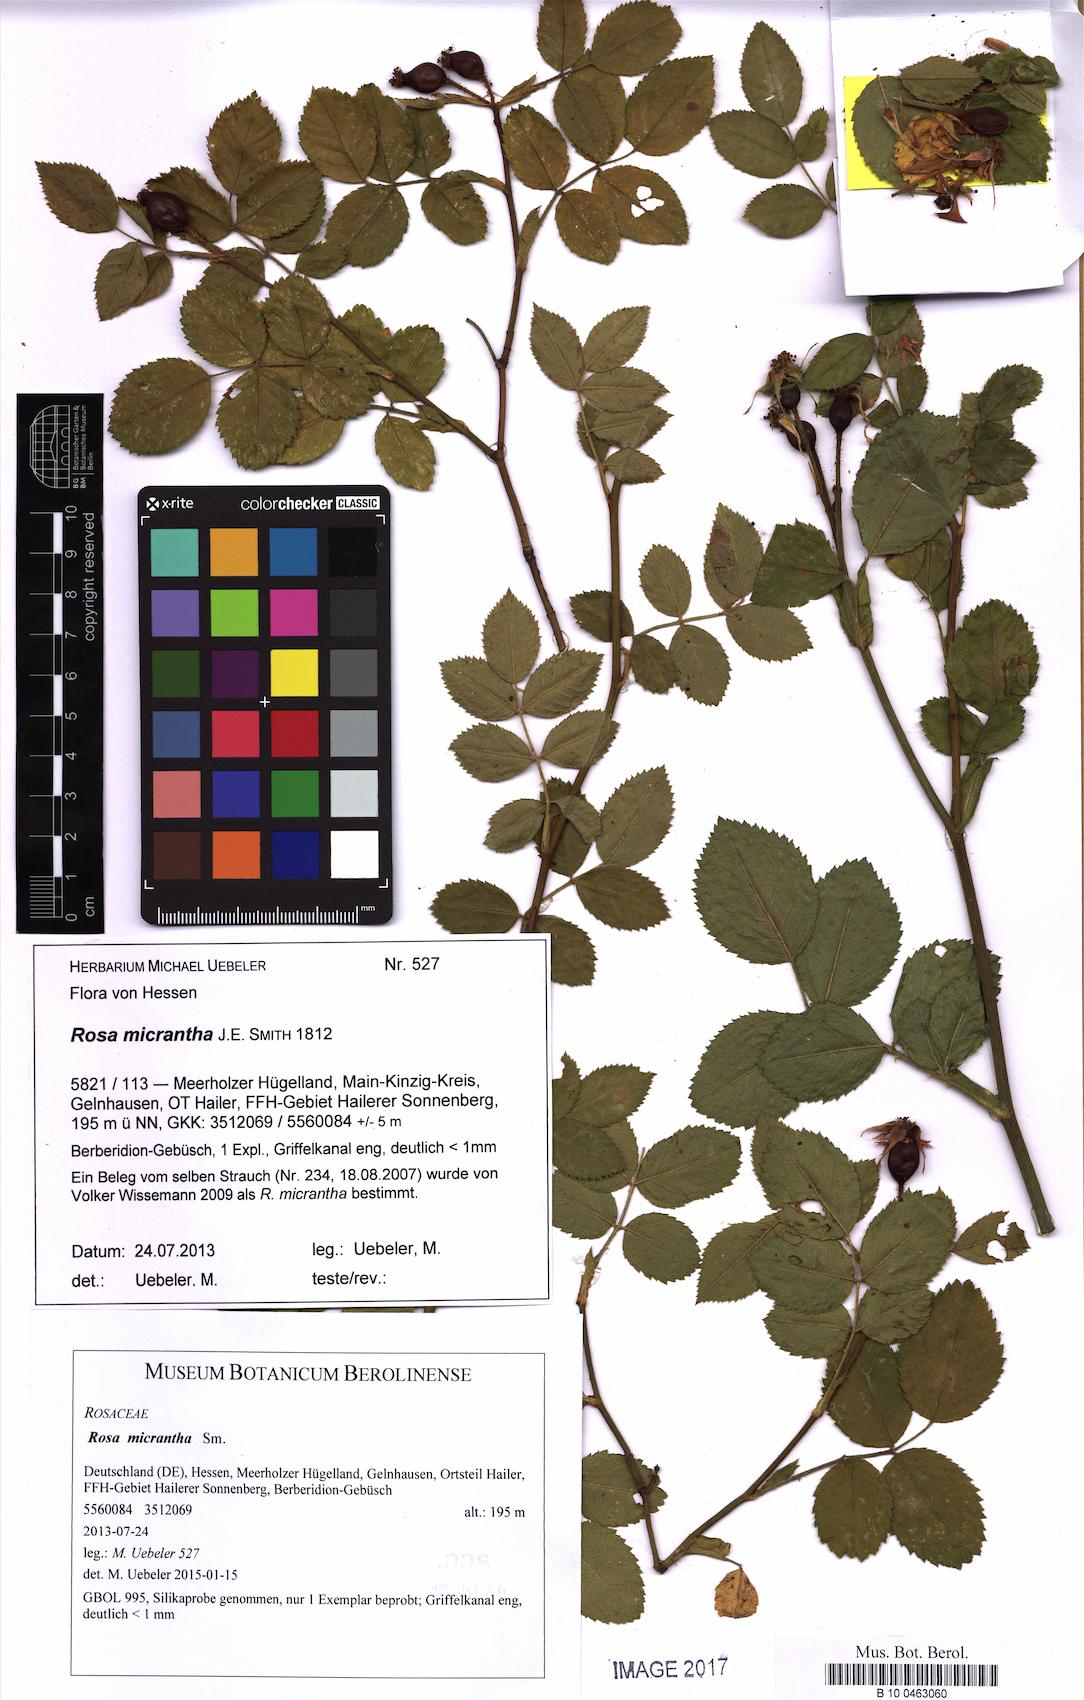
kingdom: Plantae
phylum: Tracheophyta
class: Magnoliopsida
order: Rosales
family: Rosaceae
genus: Rosa
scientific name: Rosa micrantha
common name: Small-flowered sweet-briar
